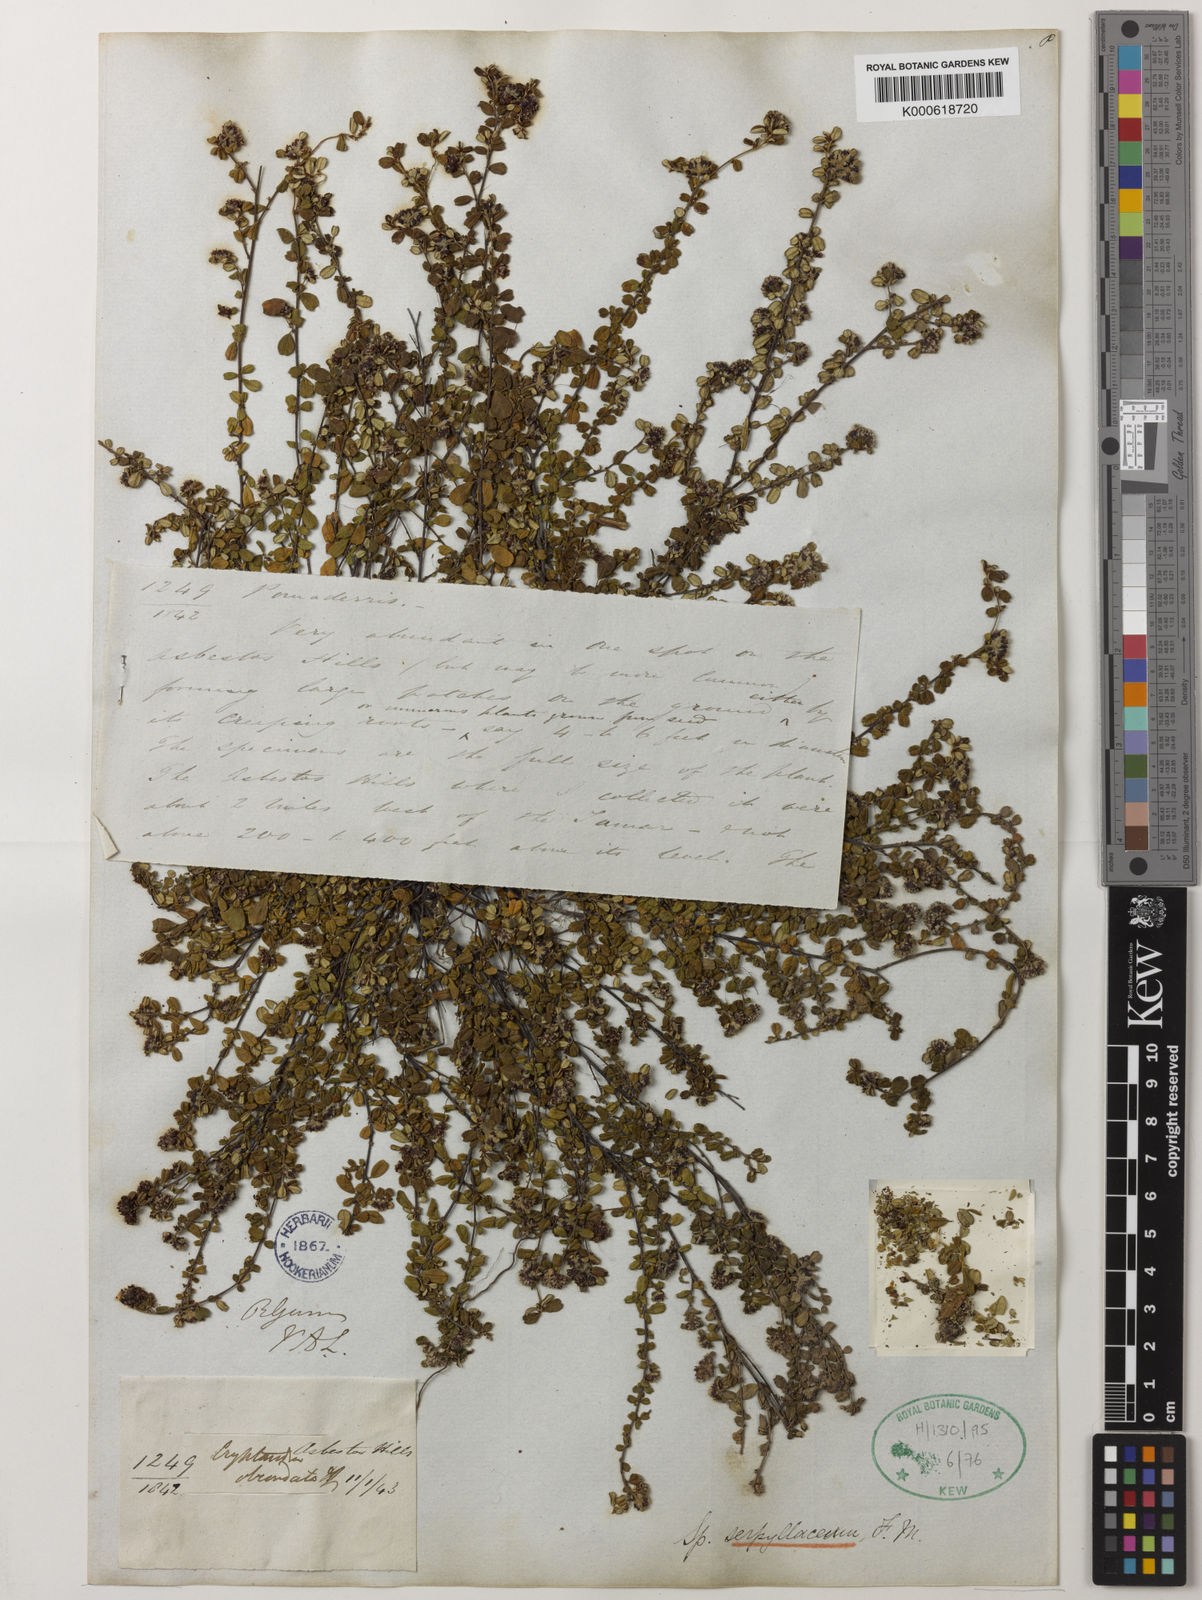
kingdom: Plantae
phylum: Tracheophyta
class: Magnoliopsida
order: Rosales
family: Rhamnaceae
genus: Spyridium
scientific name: Spyridium obcordatum
